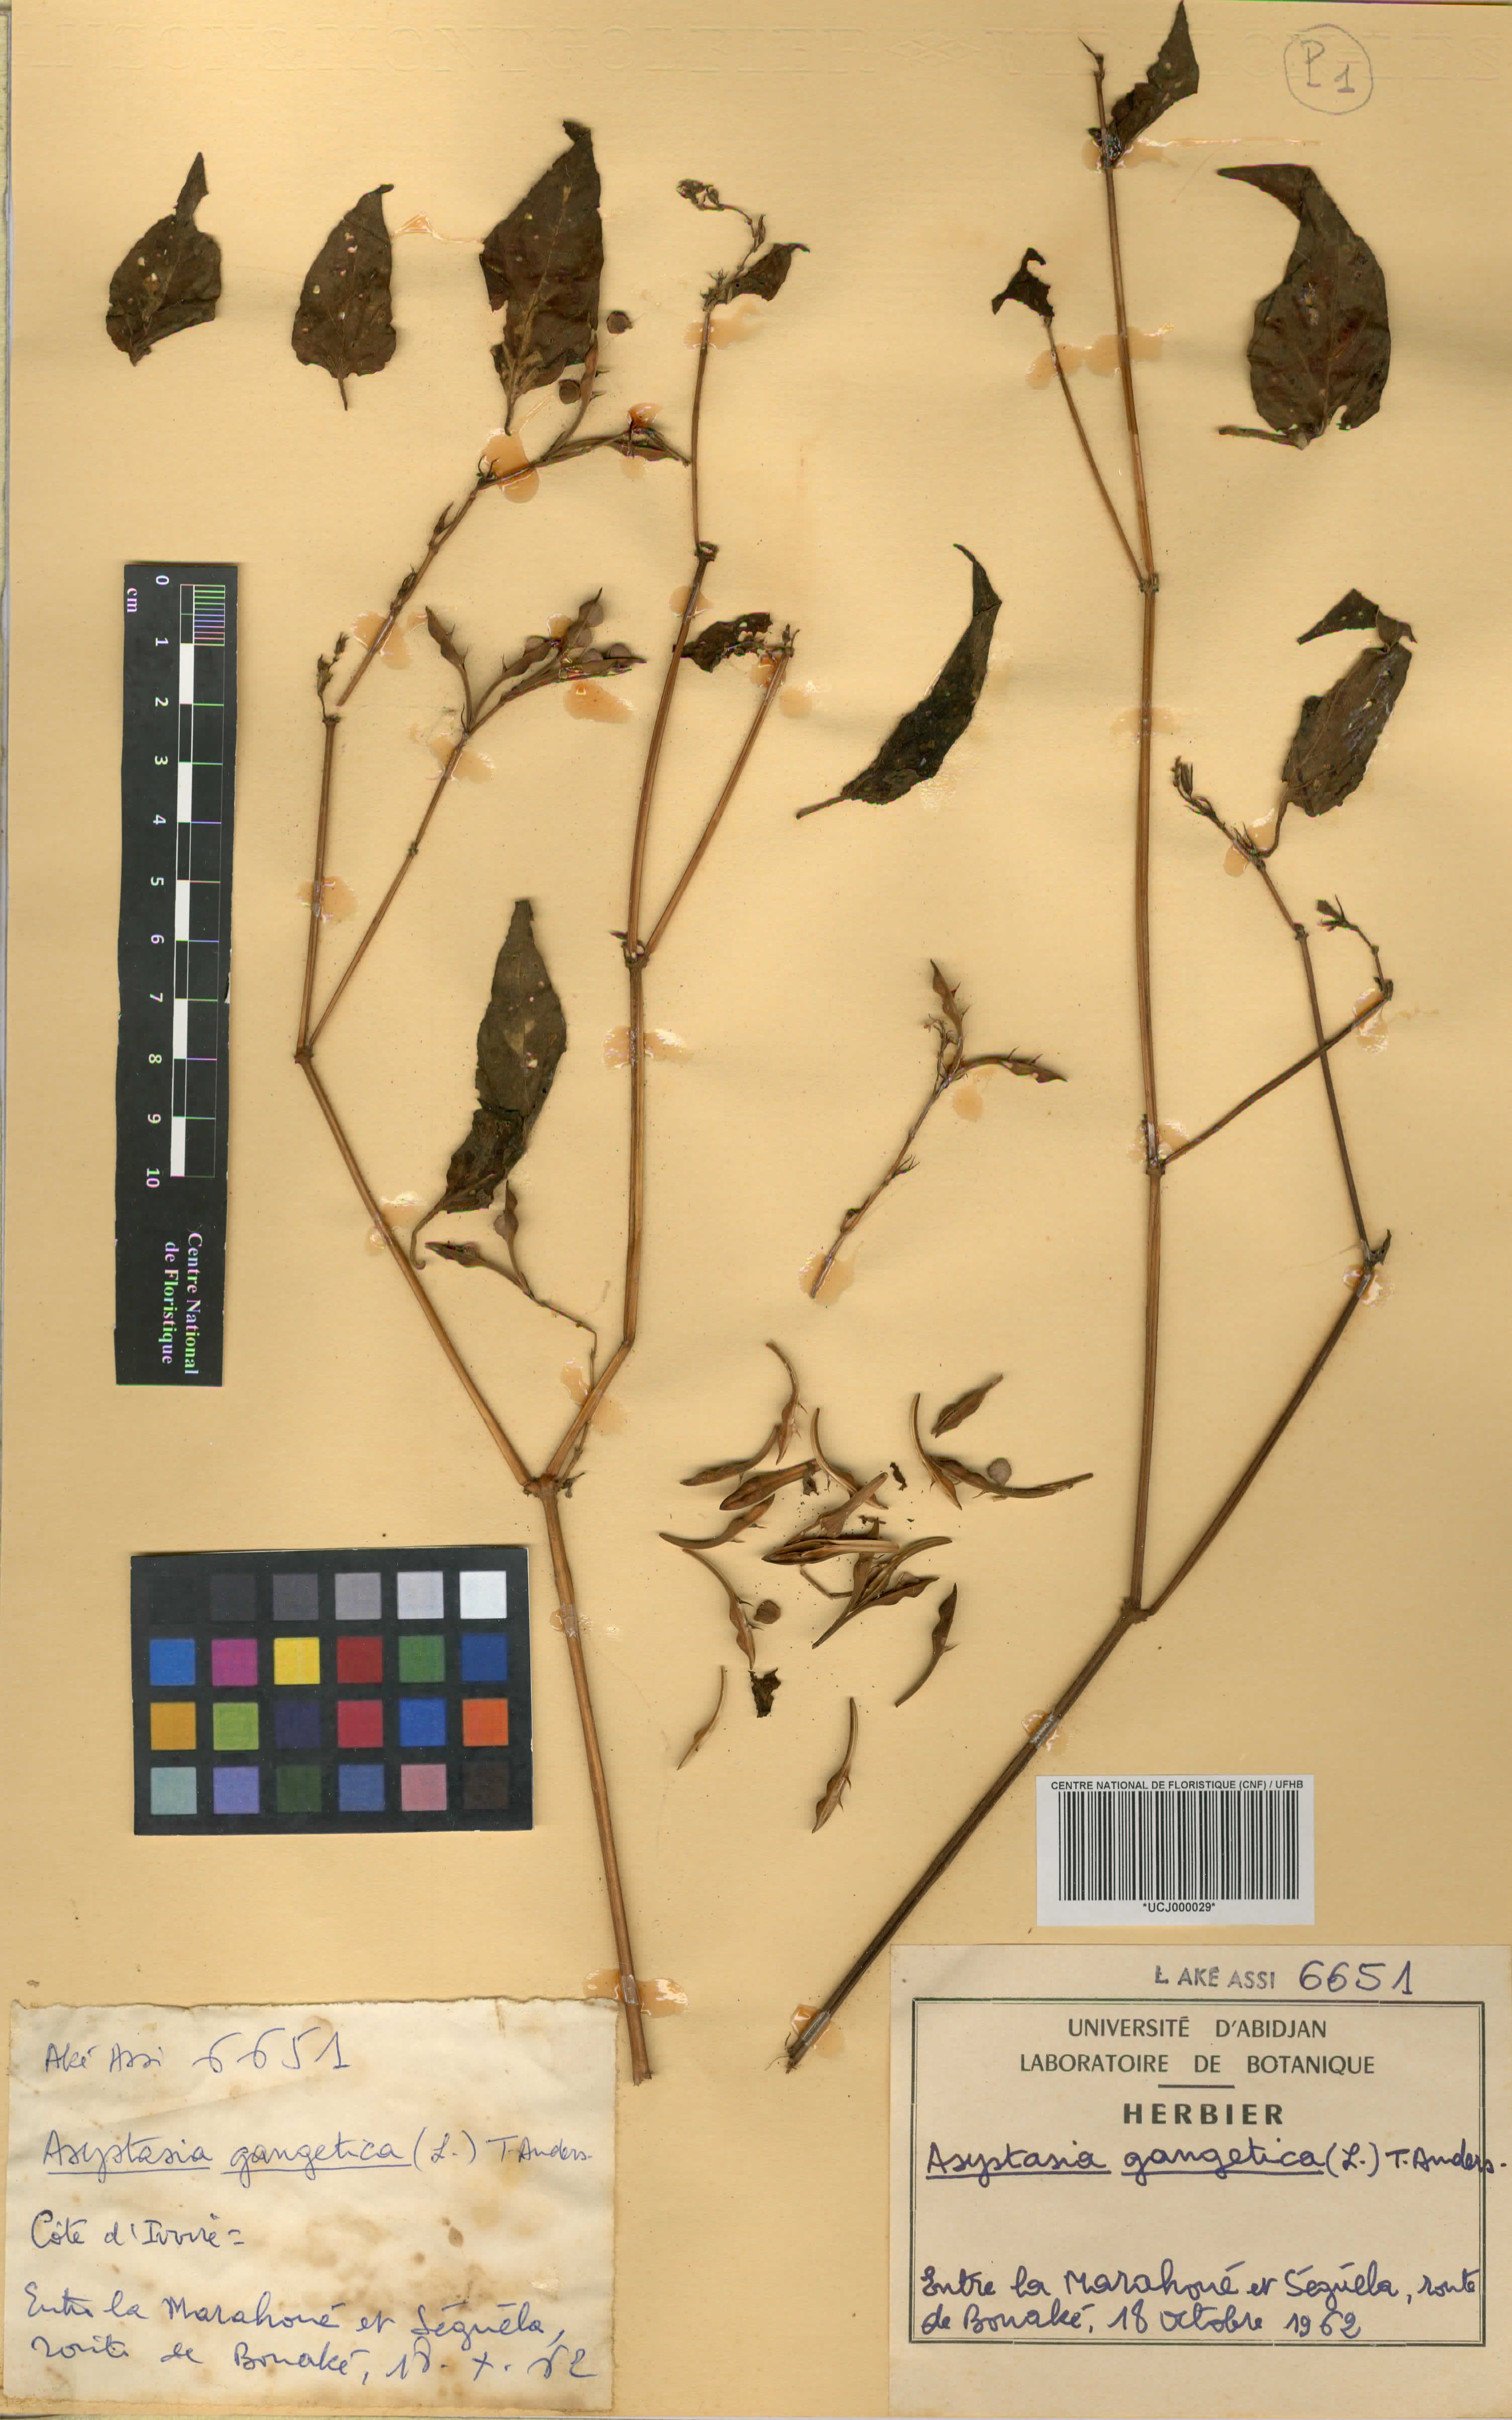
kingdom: Plantae
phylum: Tracheophyta
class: Magnoliopsida
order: Lamiales
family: Acanthaceae
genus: Asystasia
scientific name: Asystasia gangetica
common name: Chinese violet
